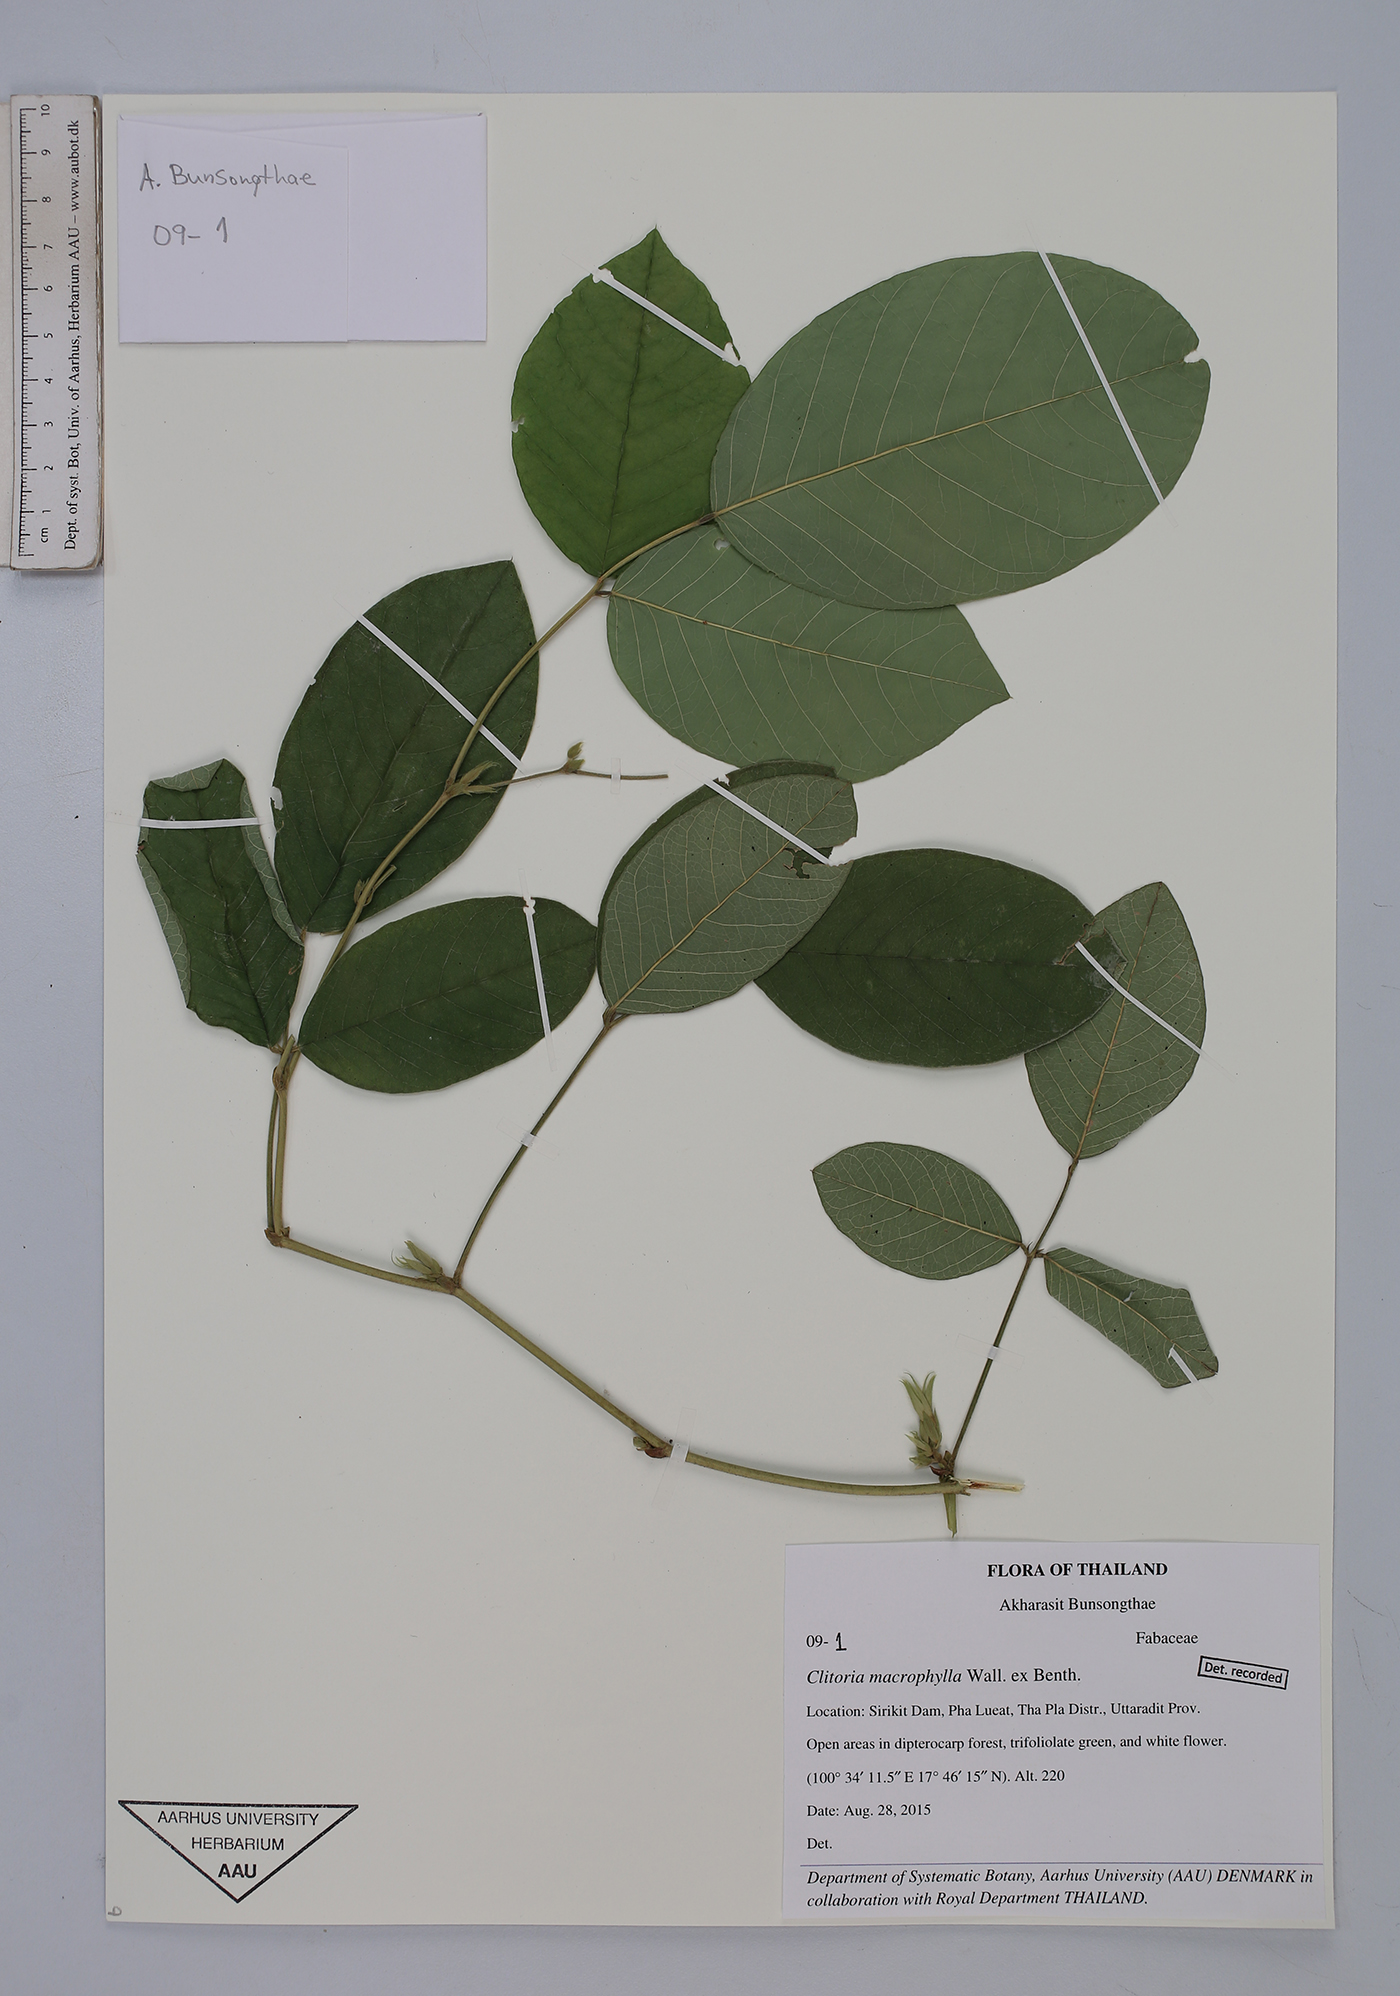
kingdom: Plantae
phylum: Tracheophyta
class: Magnoliopsida
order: Fabales
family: Fabaceae
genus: Clitoria
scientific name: Clitoria macrophylla
